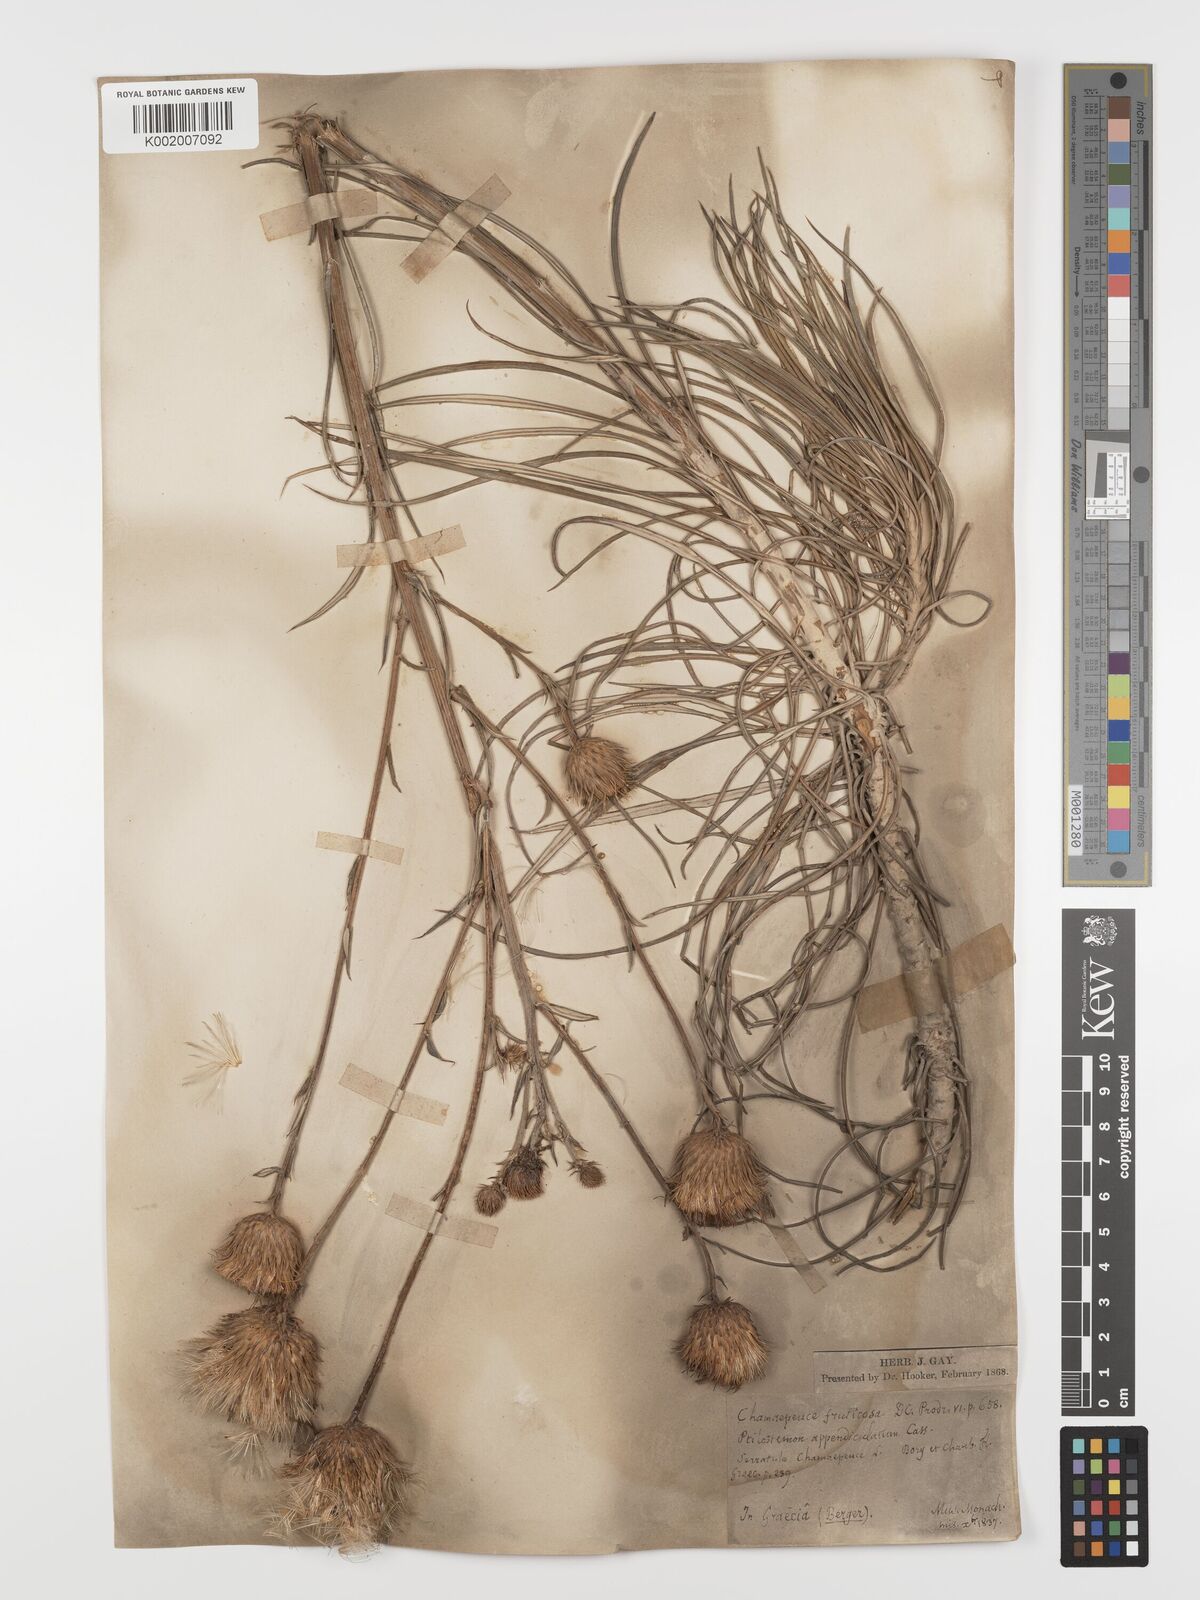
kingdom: Plantae
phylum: Tracheophyta
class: Magnoliopsida
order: Asterales
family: Asteraceae
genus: Ptilostemon
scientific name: Ptilostemon gnaphaloides
